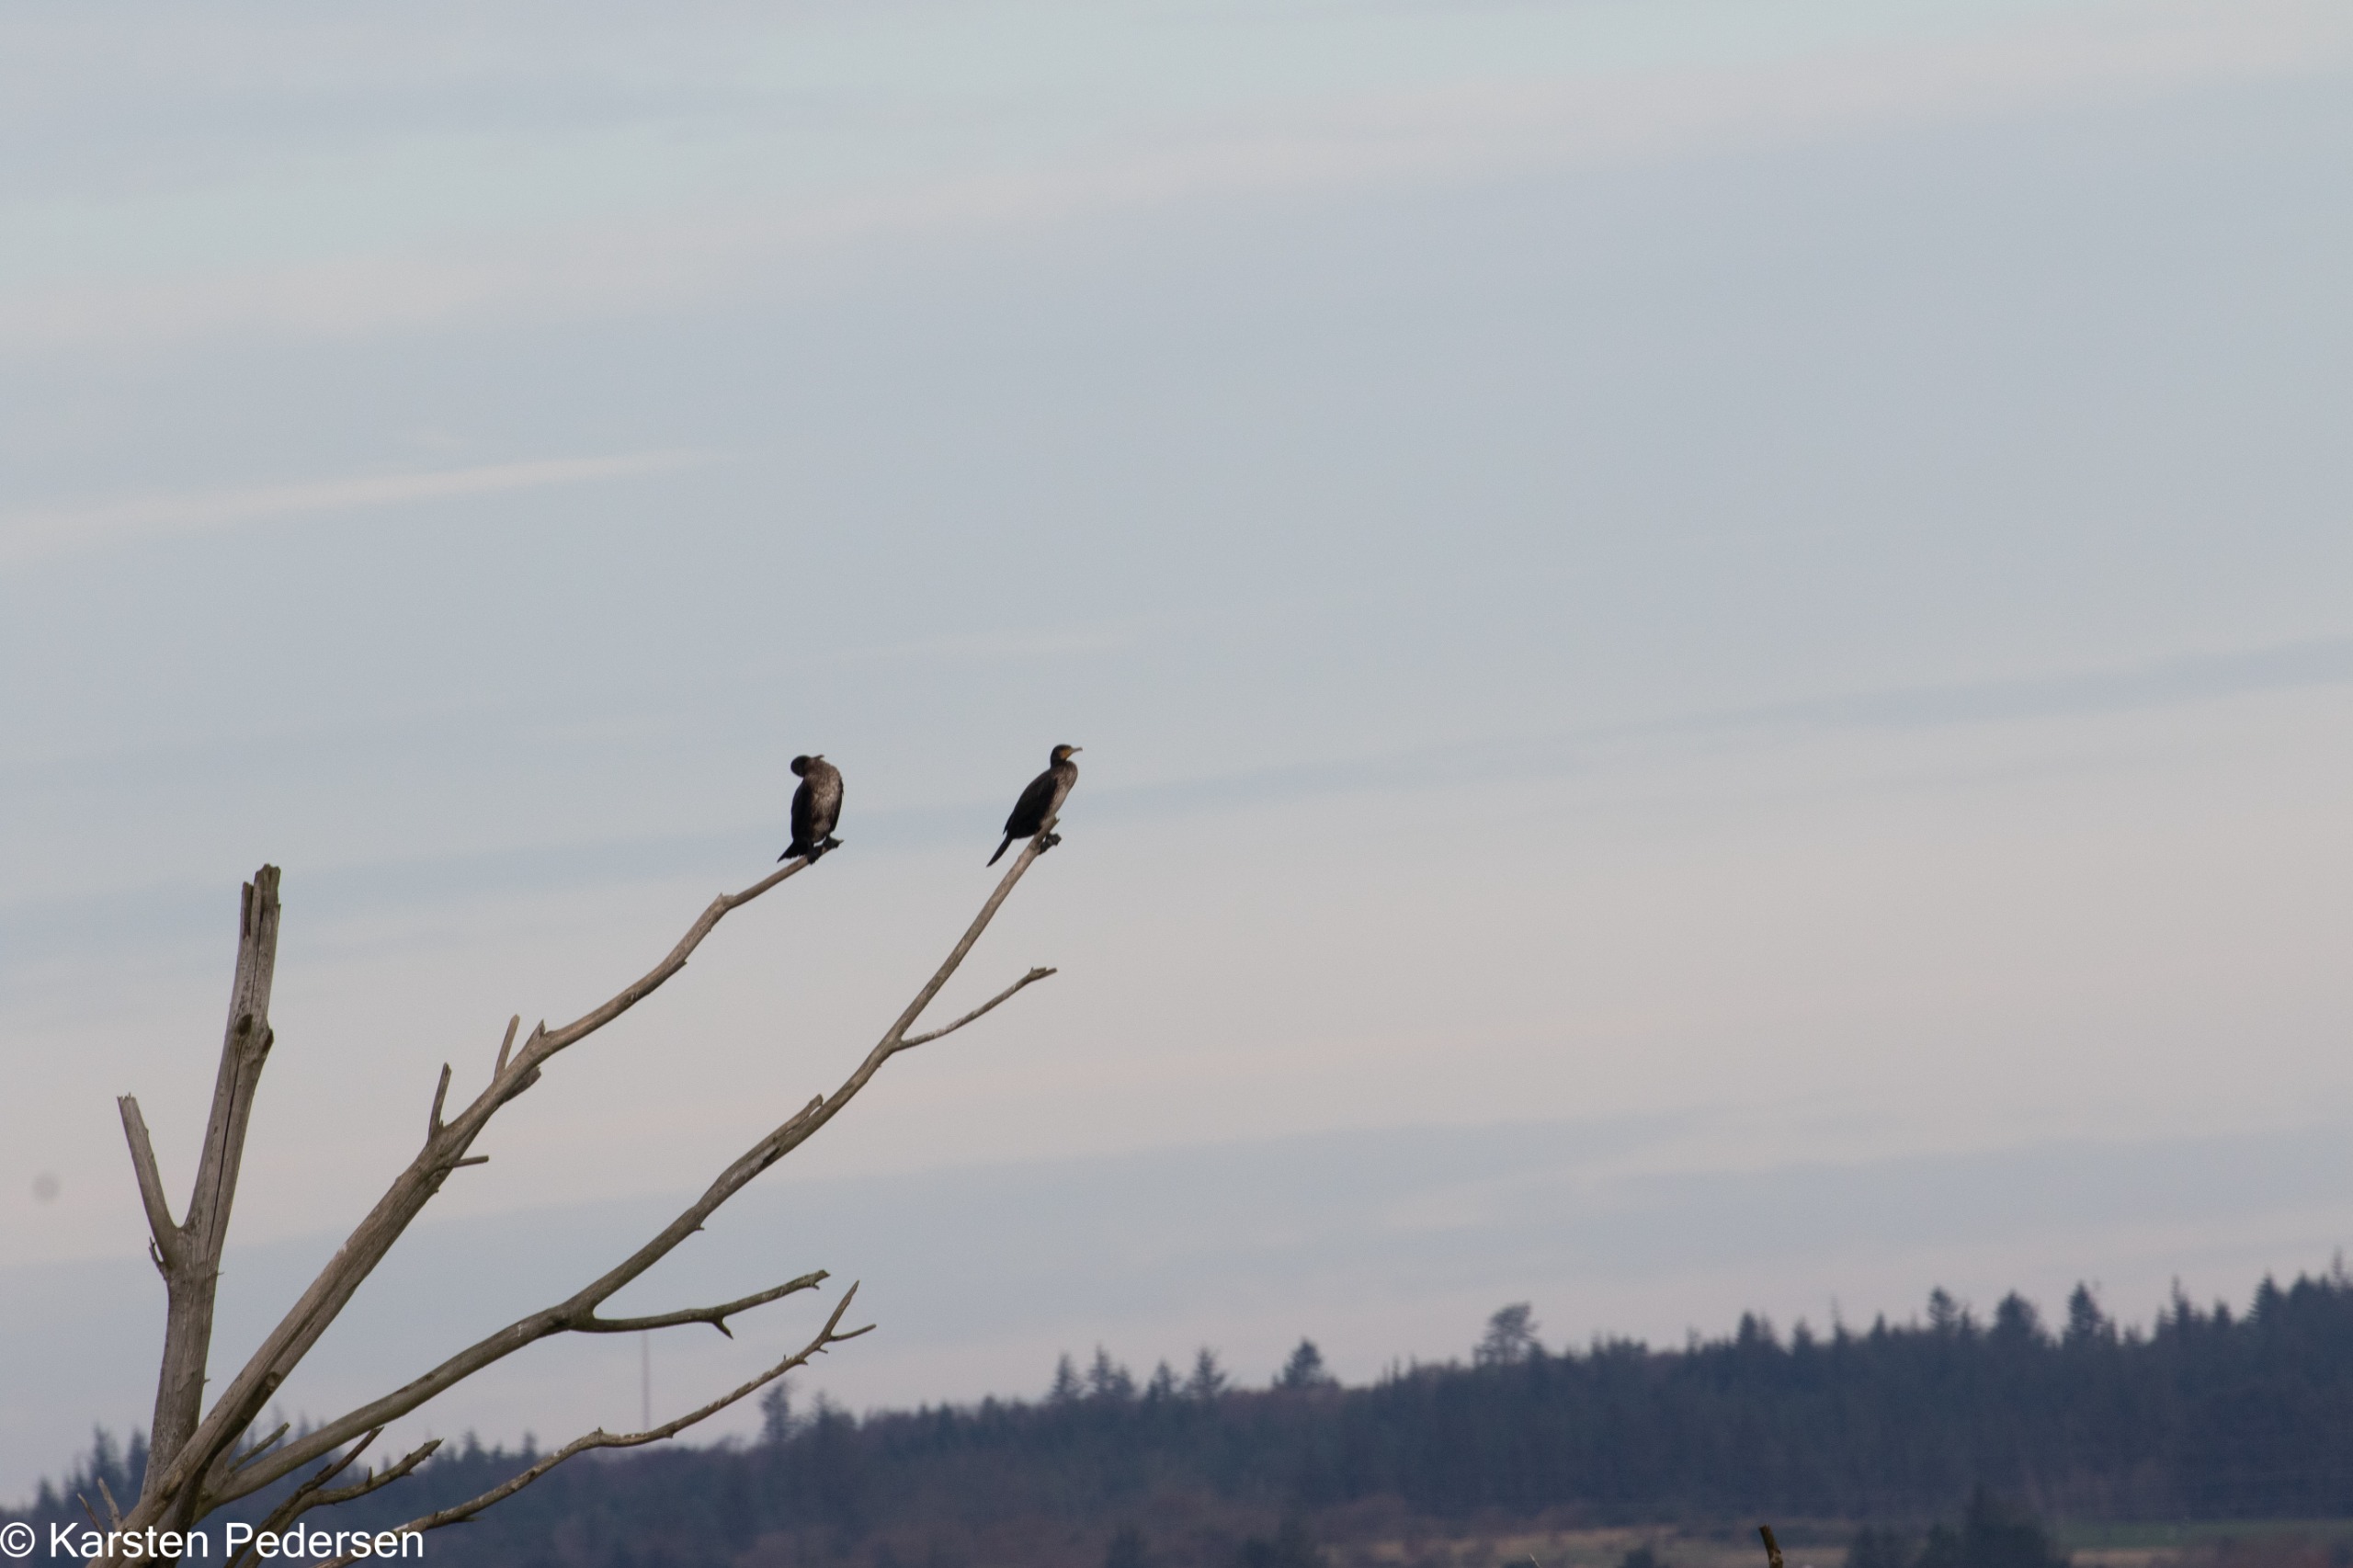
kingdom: Animalia
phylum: Chordata
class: Aves
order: Suliformes
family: Phalacrocoracidae
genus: Phalacrocorax
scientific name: Phalacrocorax carbo
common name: Skarv
